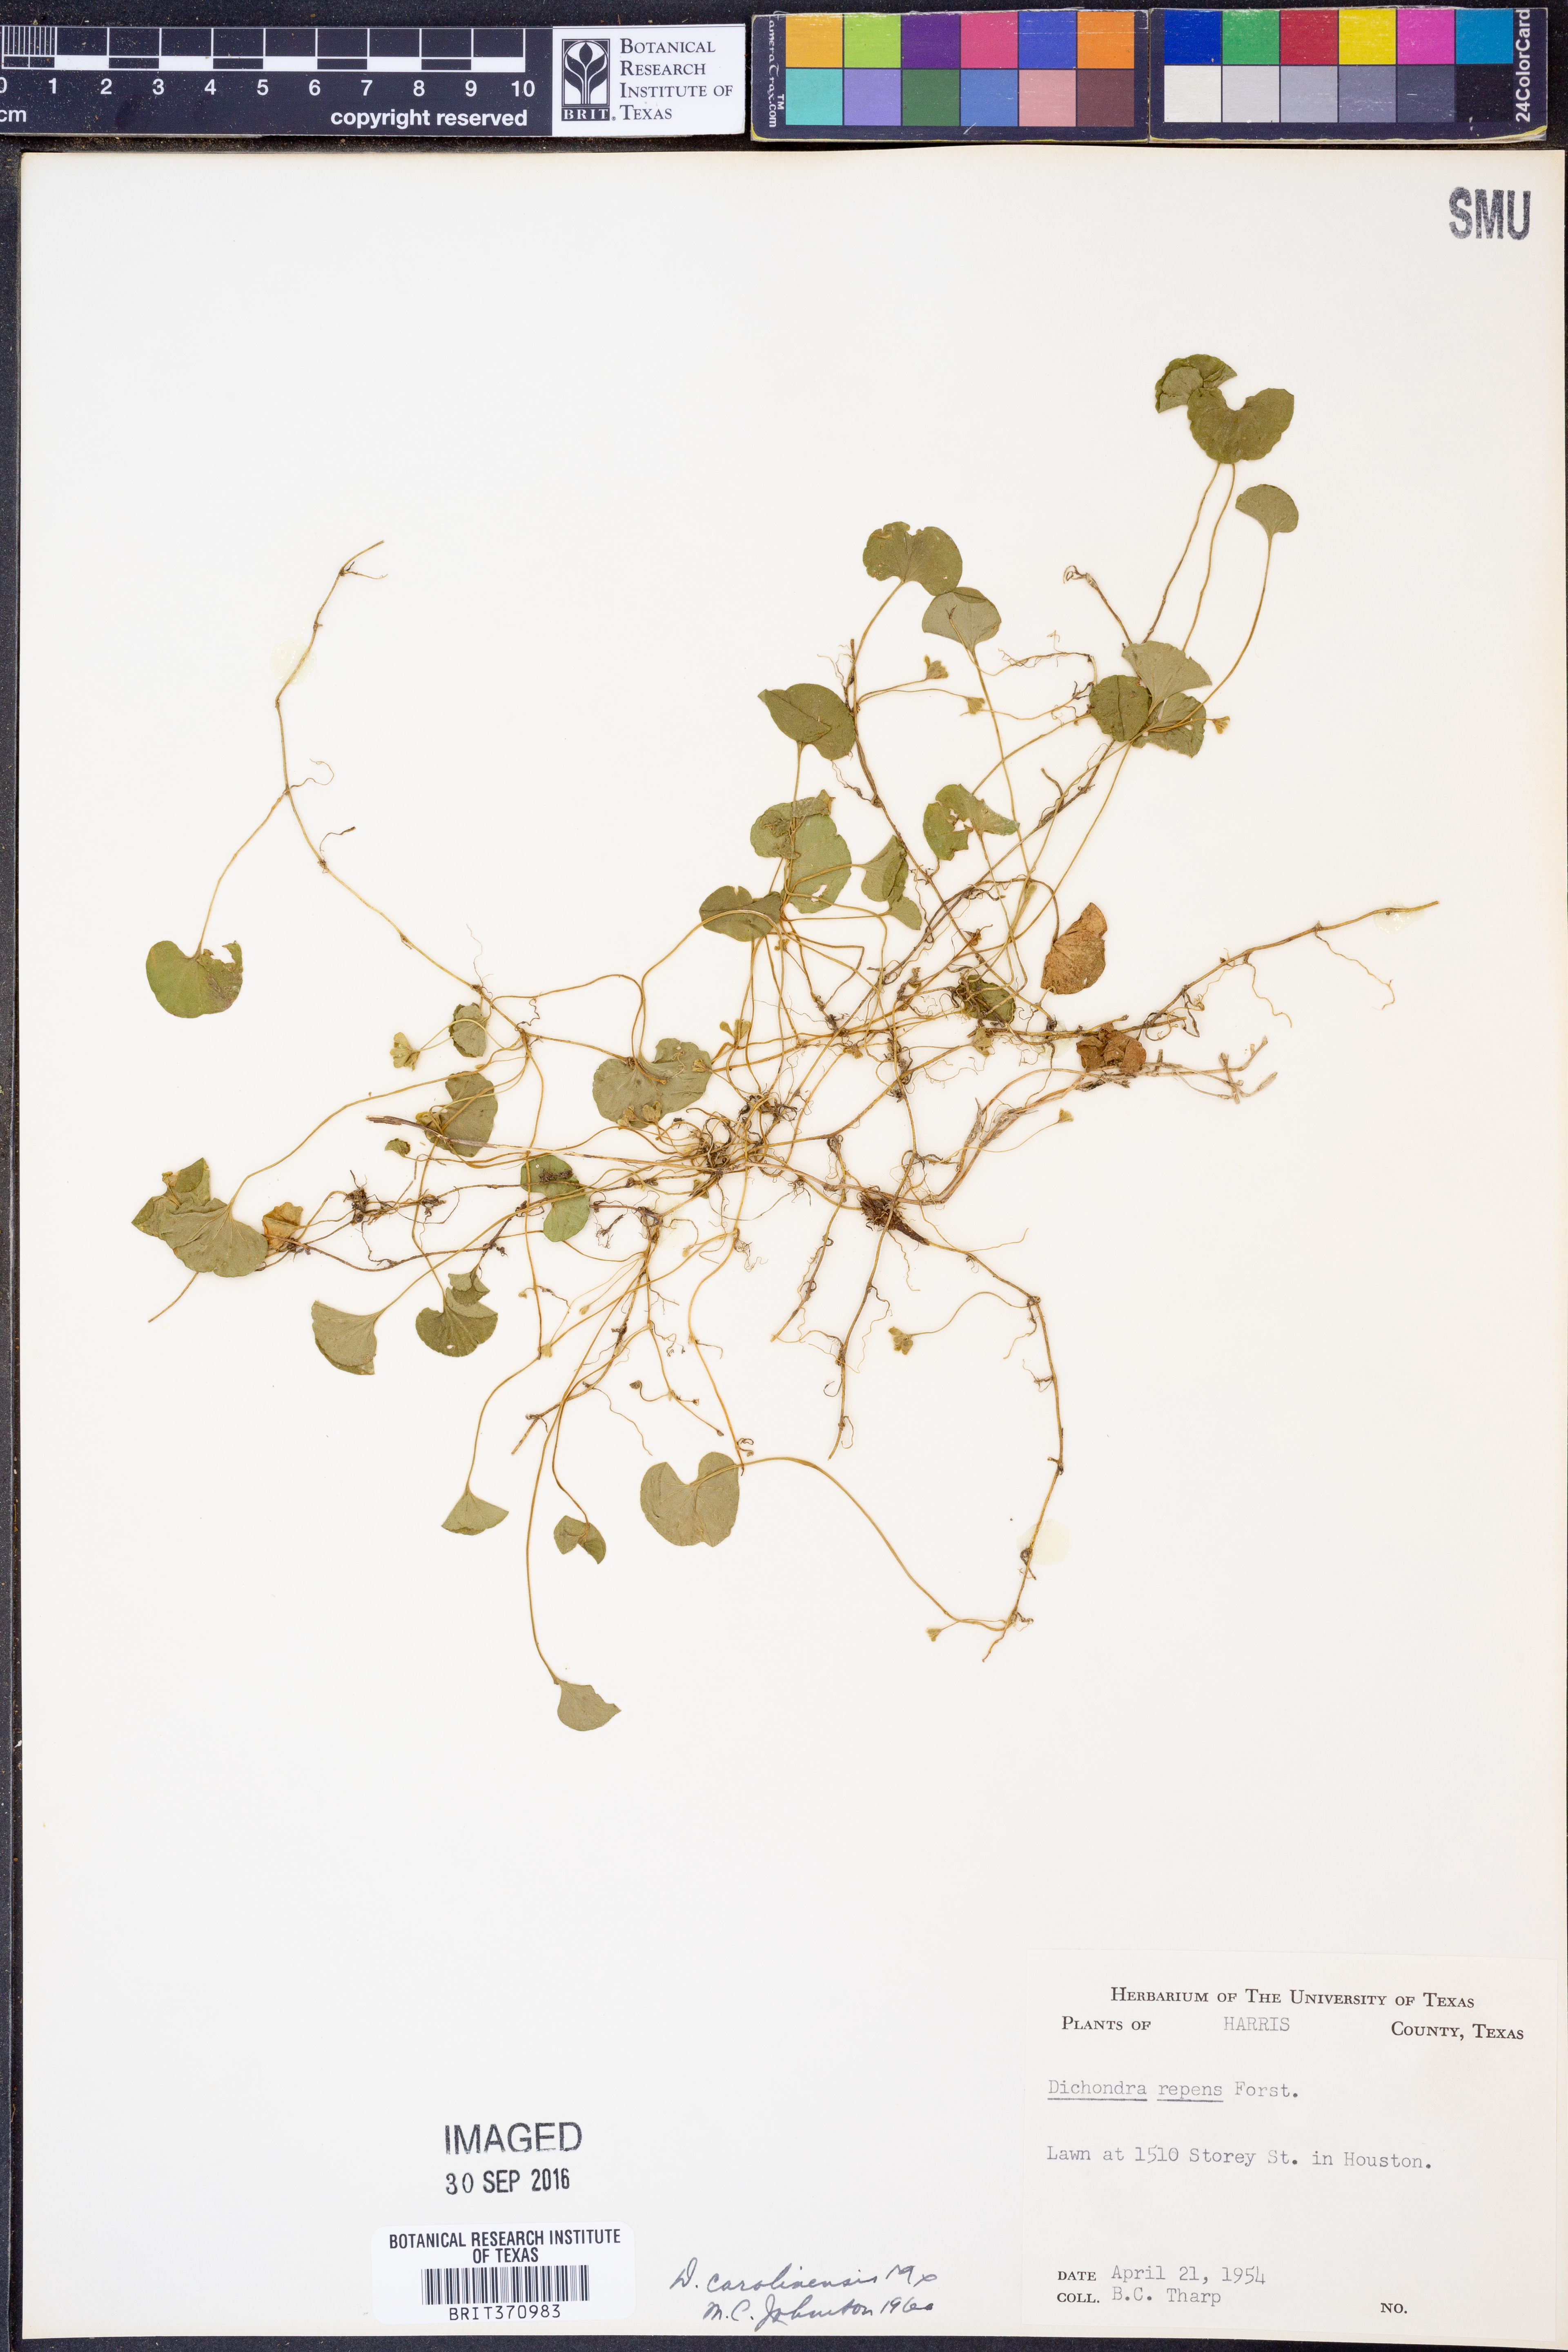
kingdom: Plantae
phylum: Tracheophyta
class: Magnoliopsida
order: Solanales
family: Convolvulaceae
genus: Dichondra
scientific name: Dichondra carolinensis
